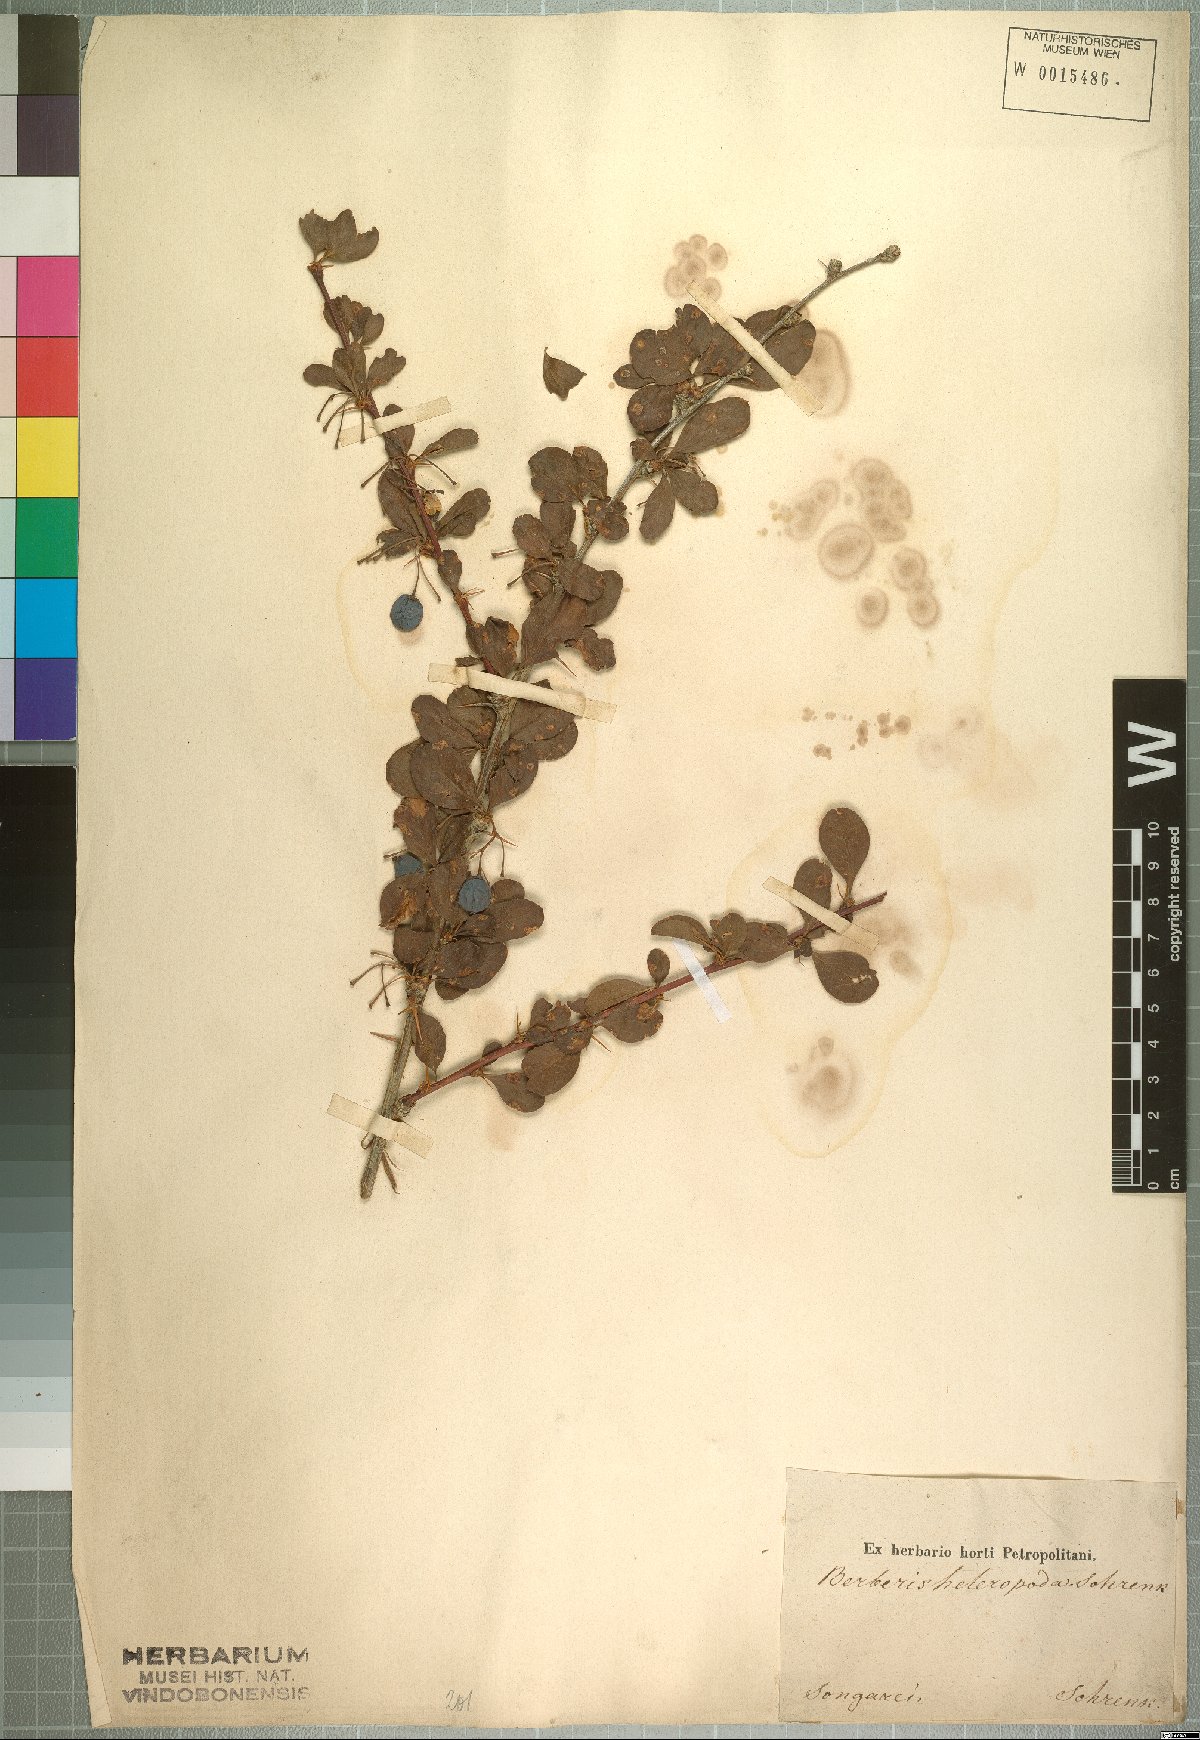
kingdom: Plantae
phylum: Tracheophyta
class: Magnoliopsida
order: Ranunculales
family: Berberidaceae
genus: Berberis
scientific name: Berberis heteropoda
